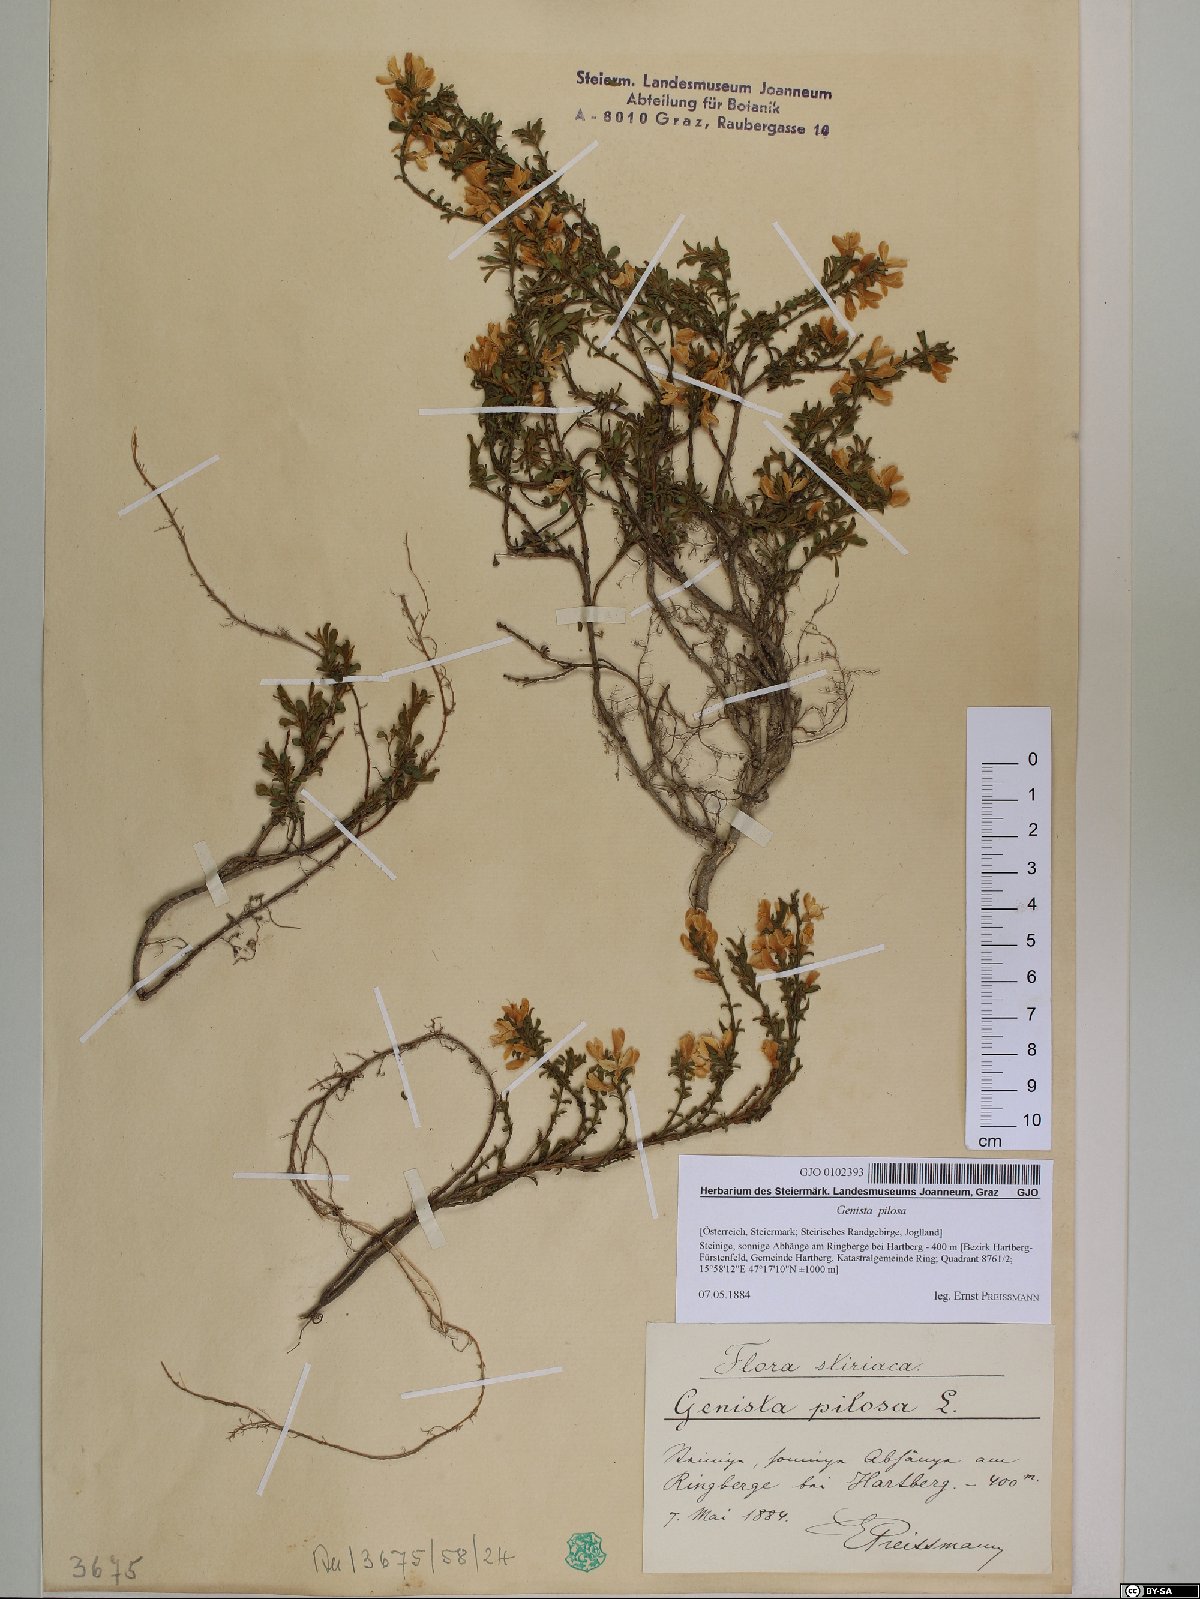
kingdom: Plantae
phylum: Tracheophyta
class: Magnoliopsida
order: Fabales
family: Fabaceae
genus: Genista
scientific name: Genista pilosa
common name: Hairy greenweed
